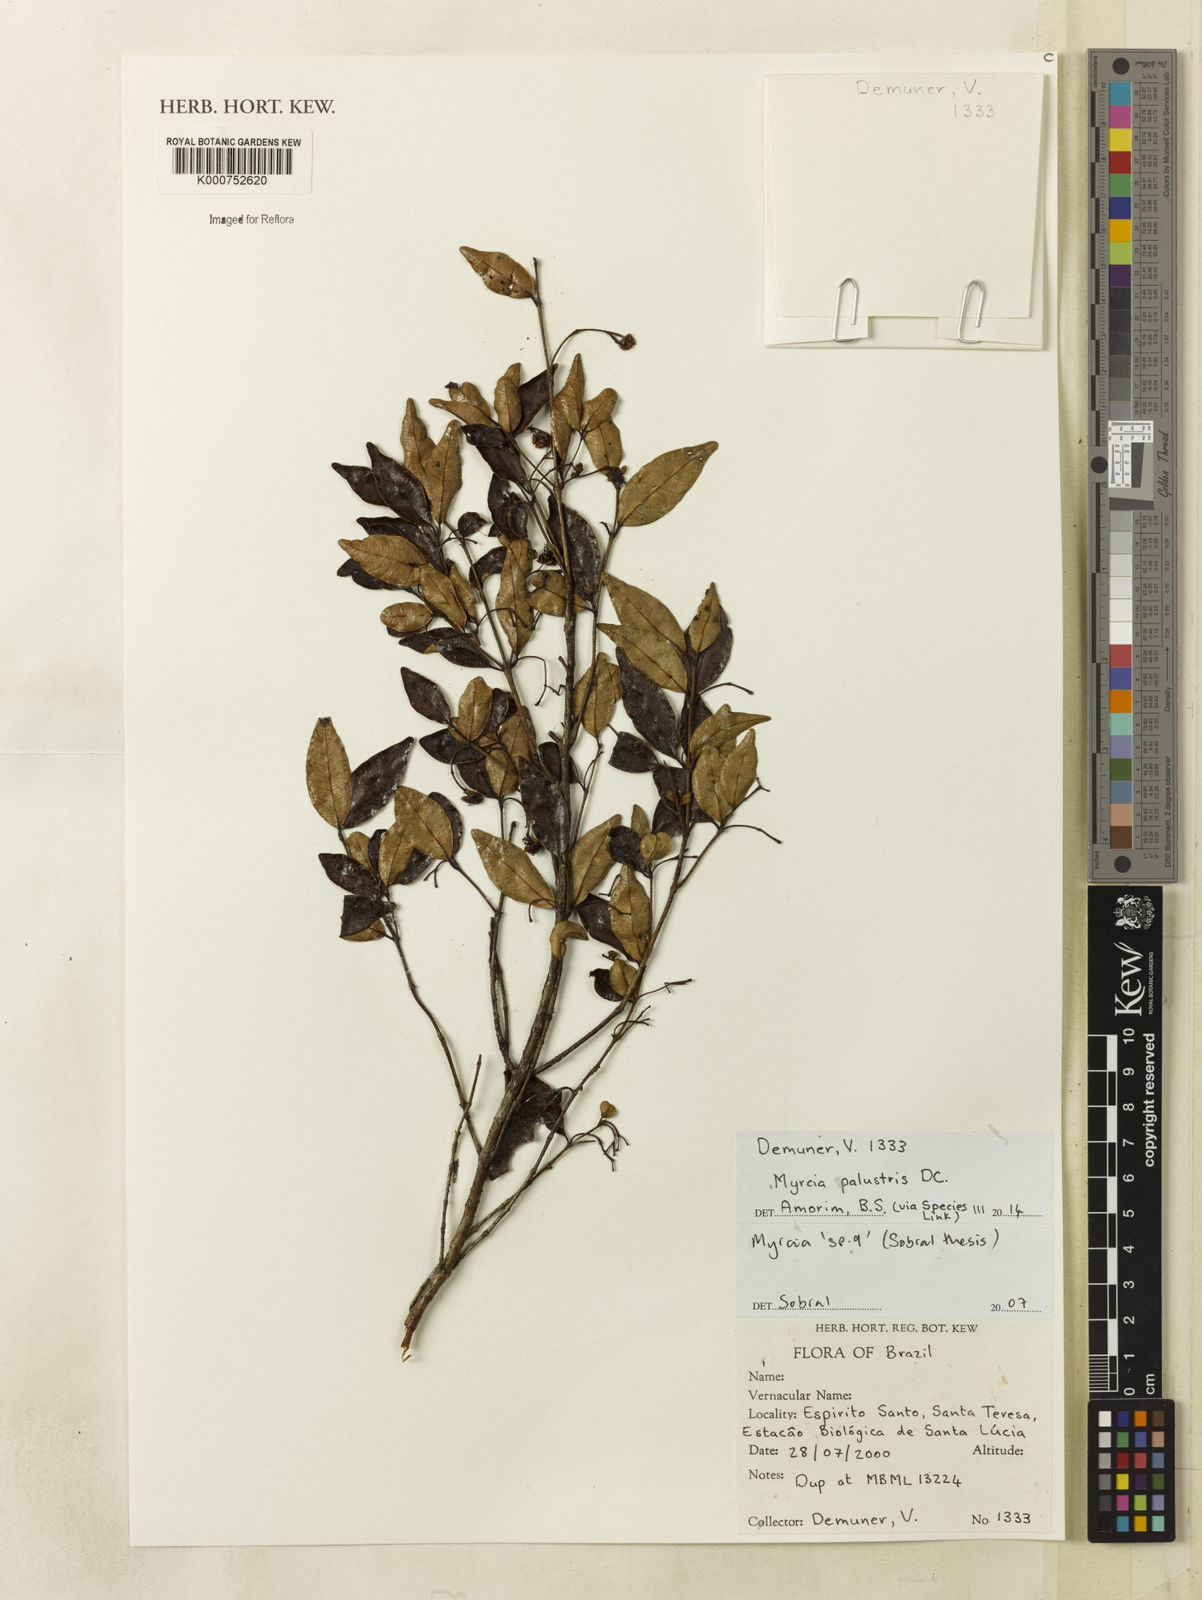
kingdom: Plantae
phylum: Tracheophyta
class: Magnoliopsida
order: Myrtales
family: Myrtaceae
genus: Myrcia
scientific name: Myrcia palustris
